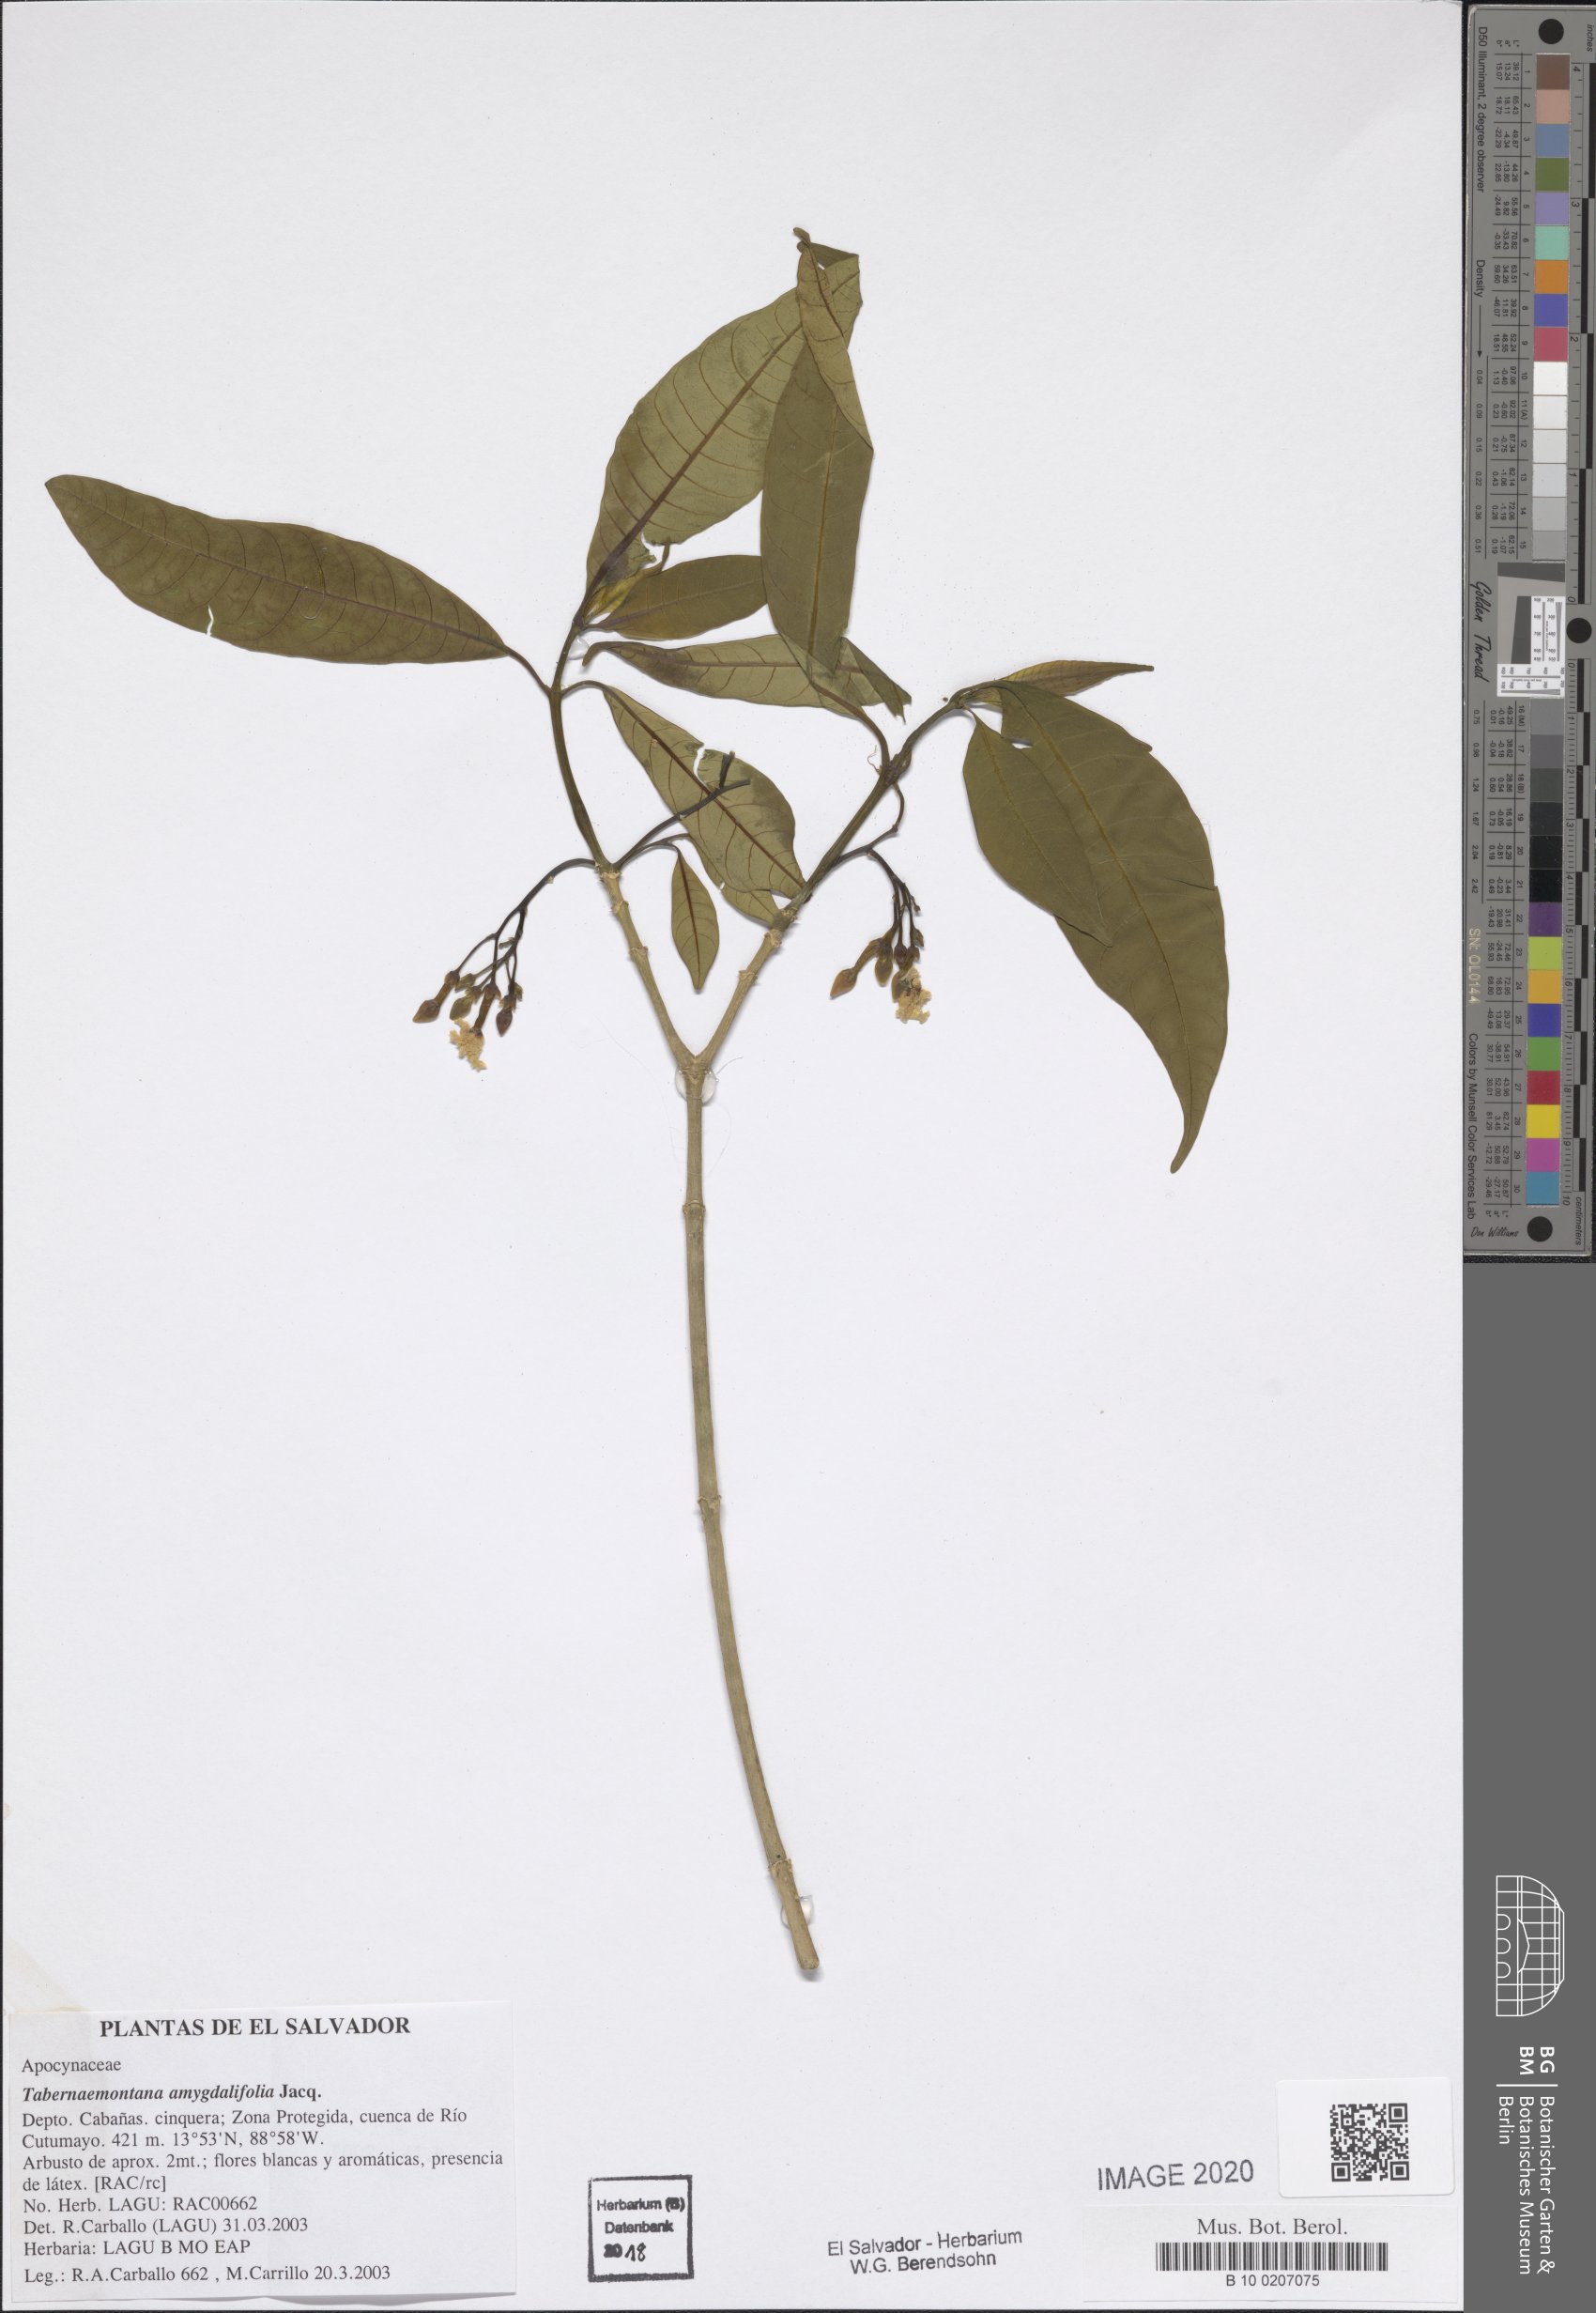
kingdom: Plantae
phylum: Tracheophyta
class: Magnoliopsida
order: Gentianales
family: Apocynaceae
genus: Tabernaemontana
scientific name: Tabernaemontana amygdalifolia
